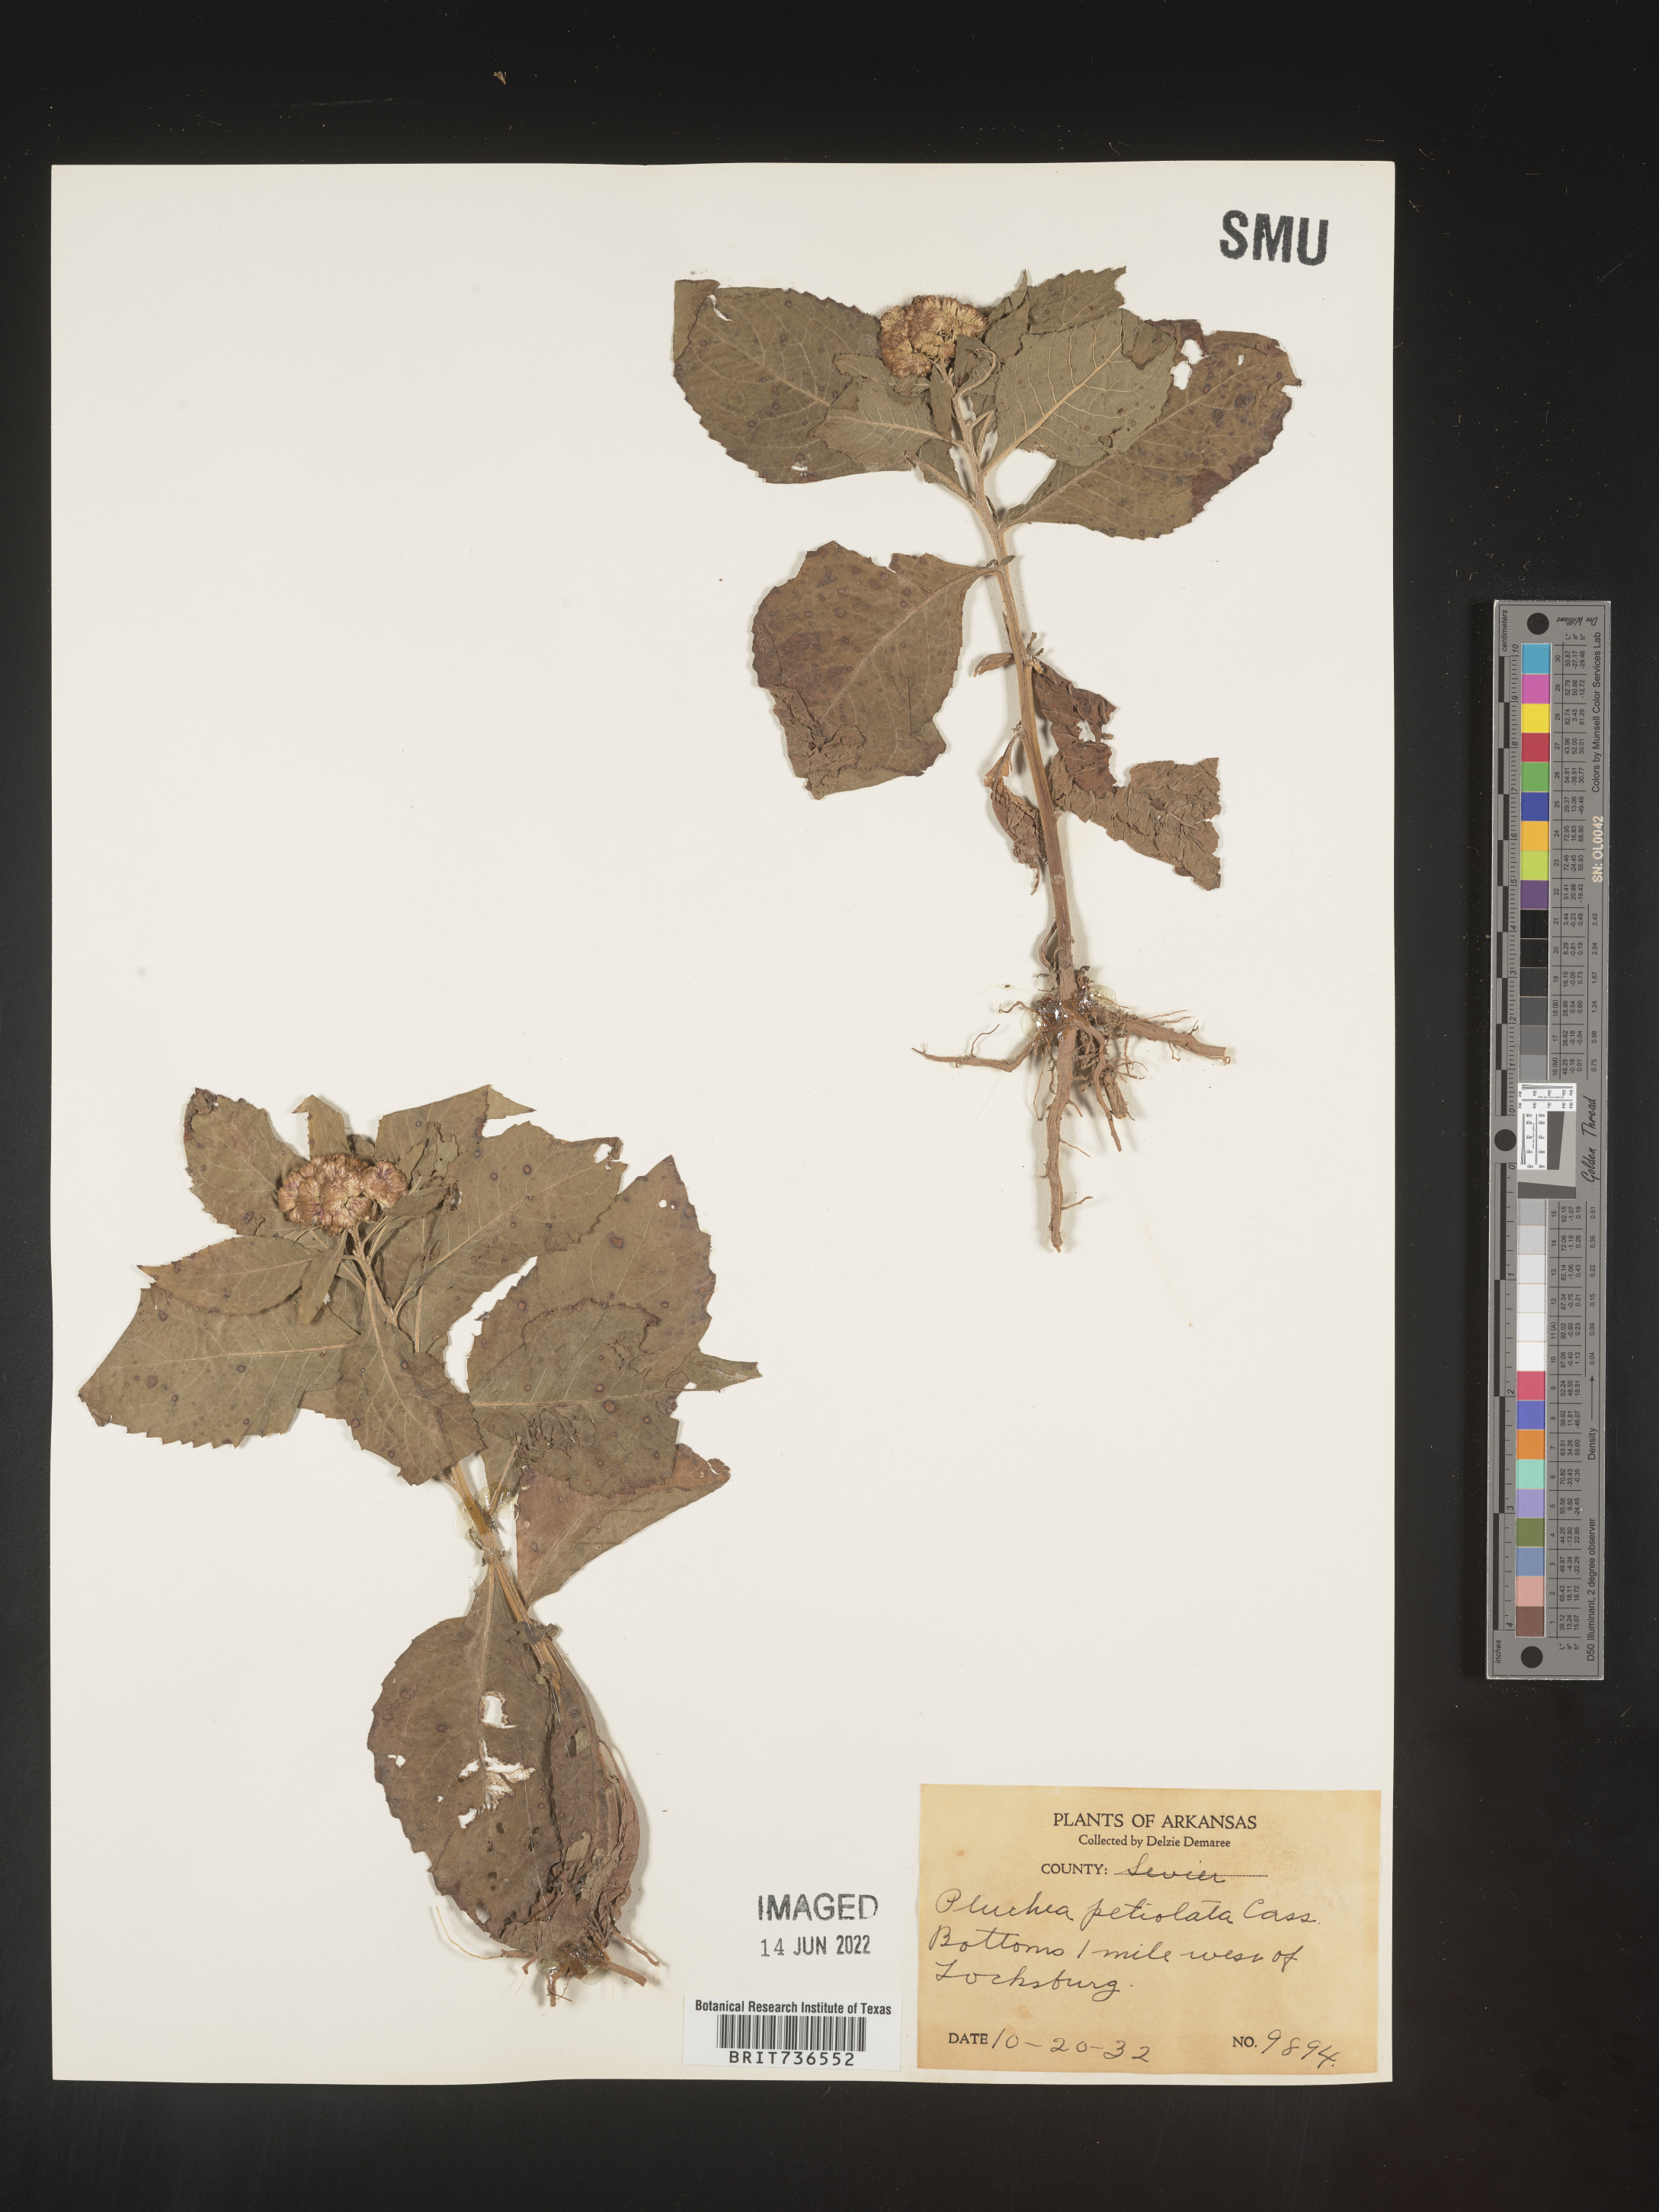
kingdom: Plantae
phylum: Tracheophyta
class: Magnoliopsida
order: Asterales
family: Asteraceae
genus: Pluchea
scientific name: Pluchea camphorata
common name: Camphor pluchea
